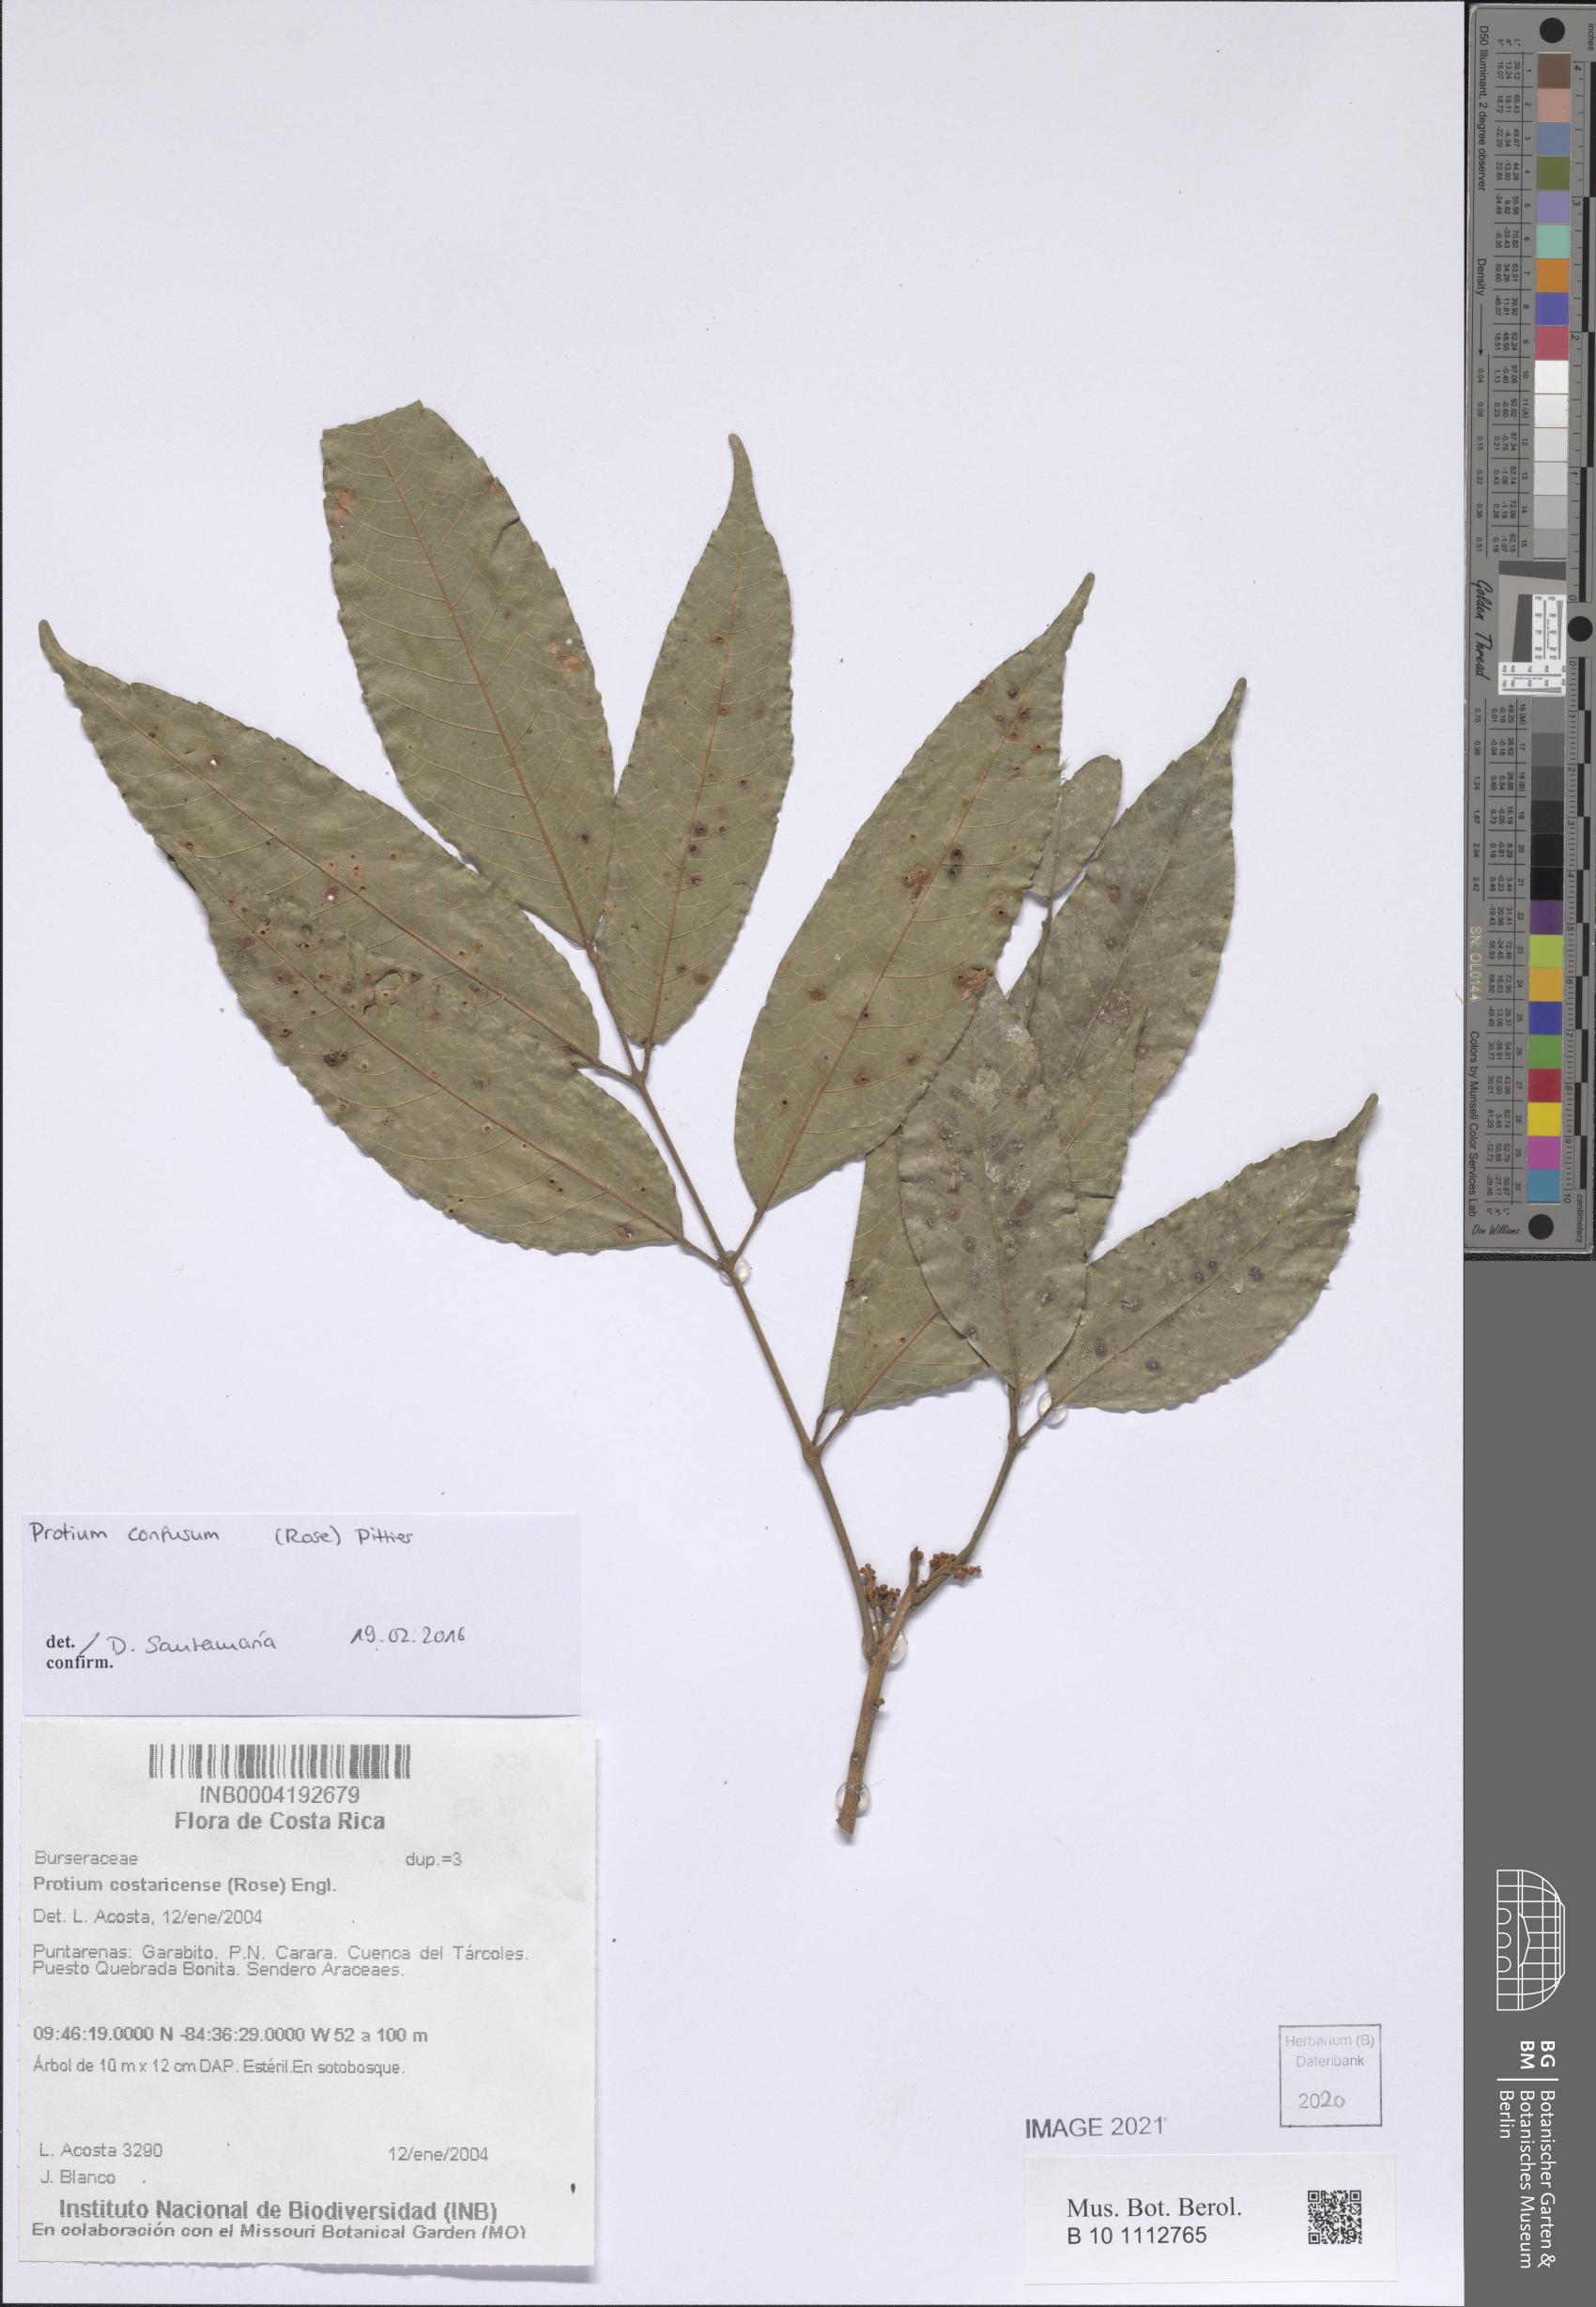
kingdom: Plantae
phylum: Tracheophyta
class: Magnoliopsida
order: Sapindales
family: Burseraceae
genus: Protium
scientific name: Protium costaricense
